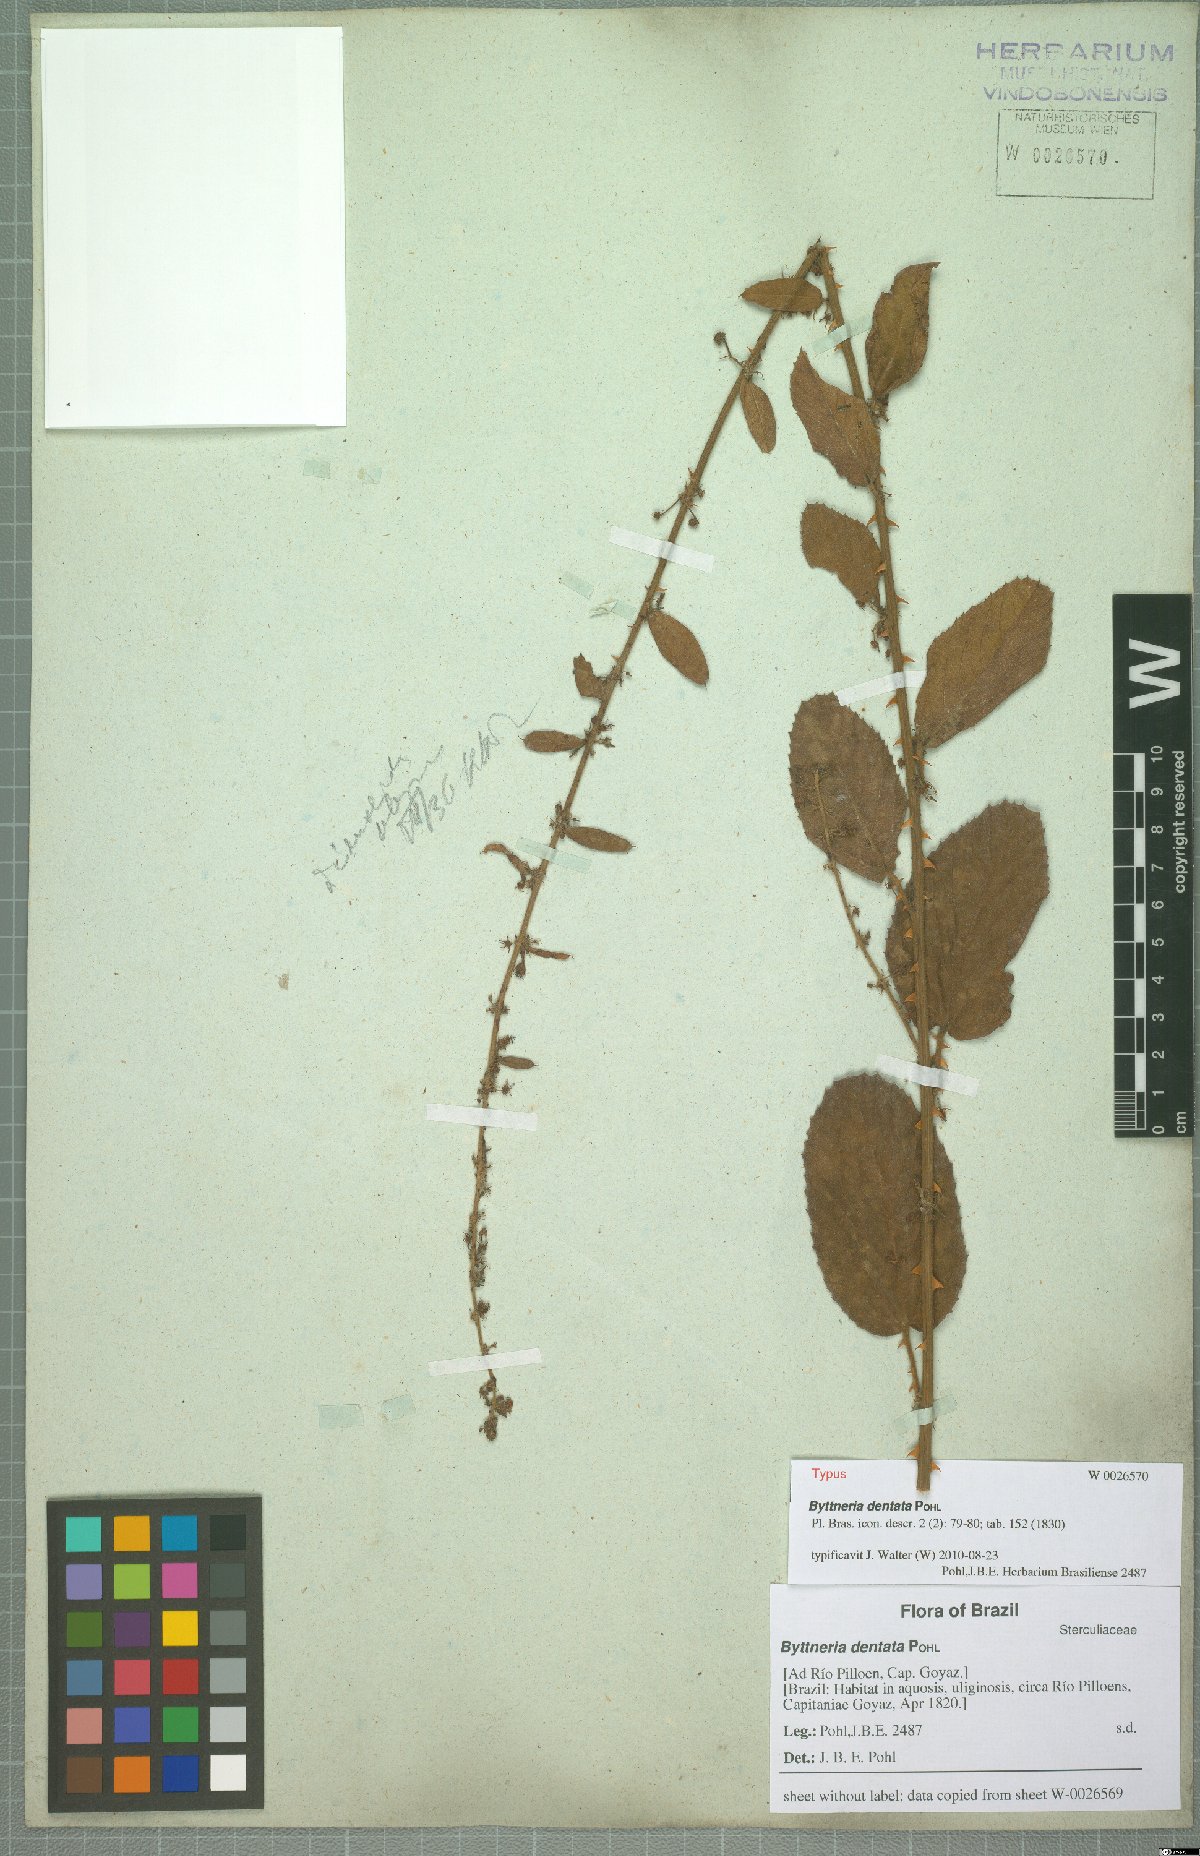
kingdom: Plantae
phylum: Tracheophyta
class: Magnoliopsida
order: Malvales
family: Malvaceae
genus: Byttneria
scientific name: Byttneria dentata
